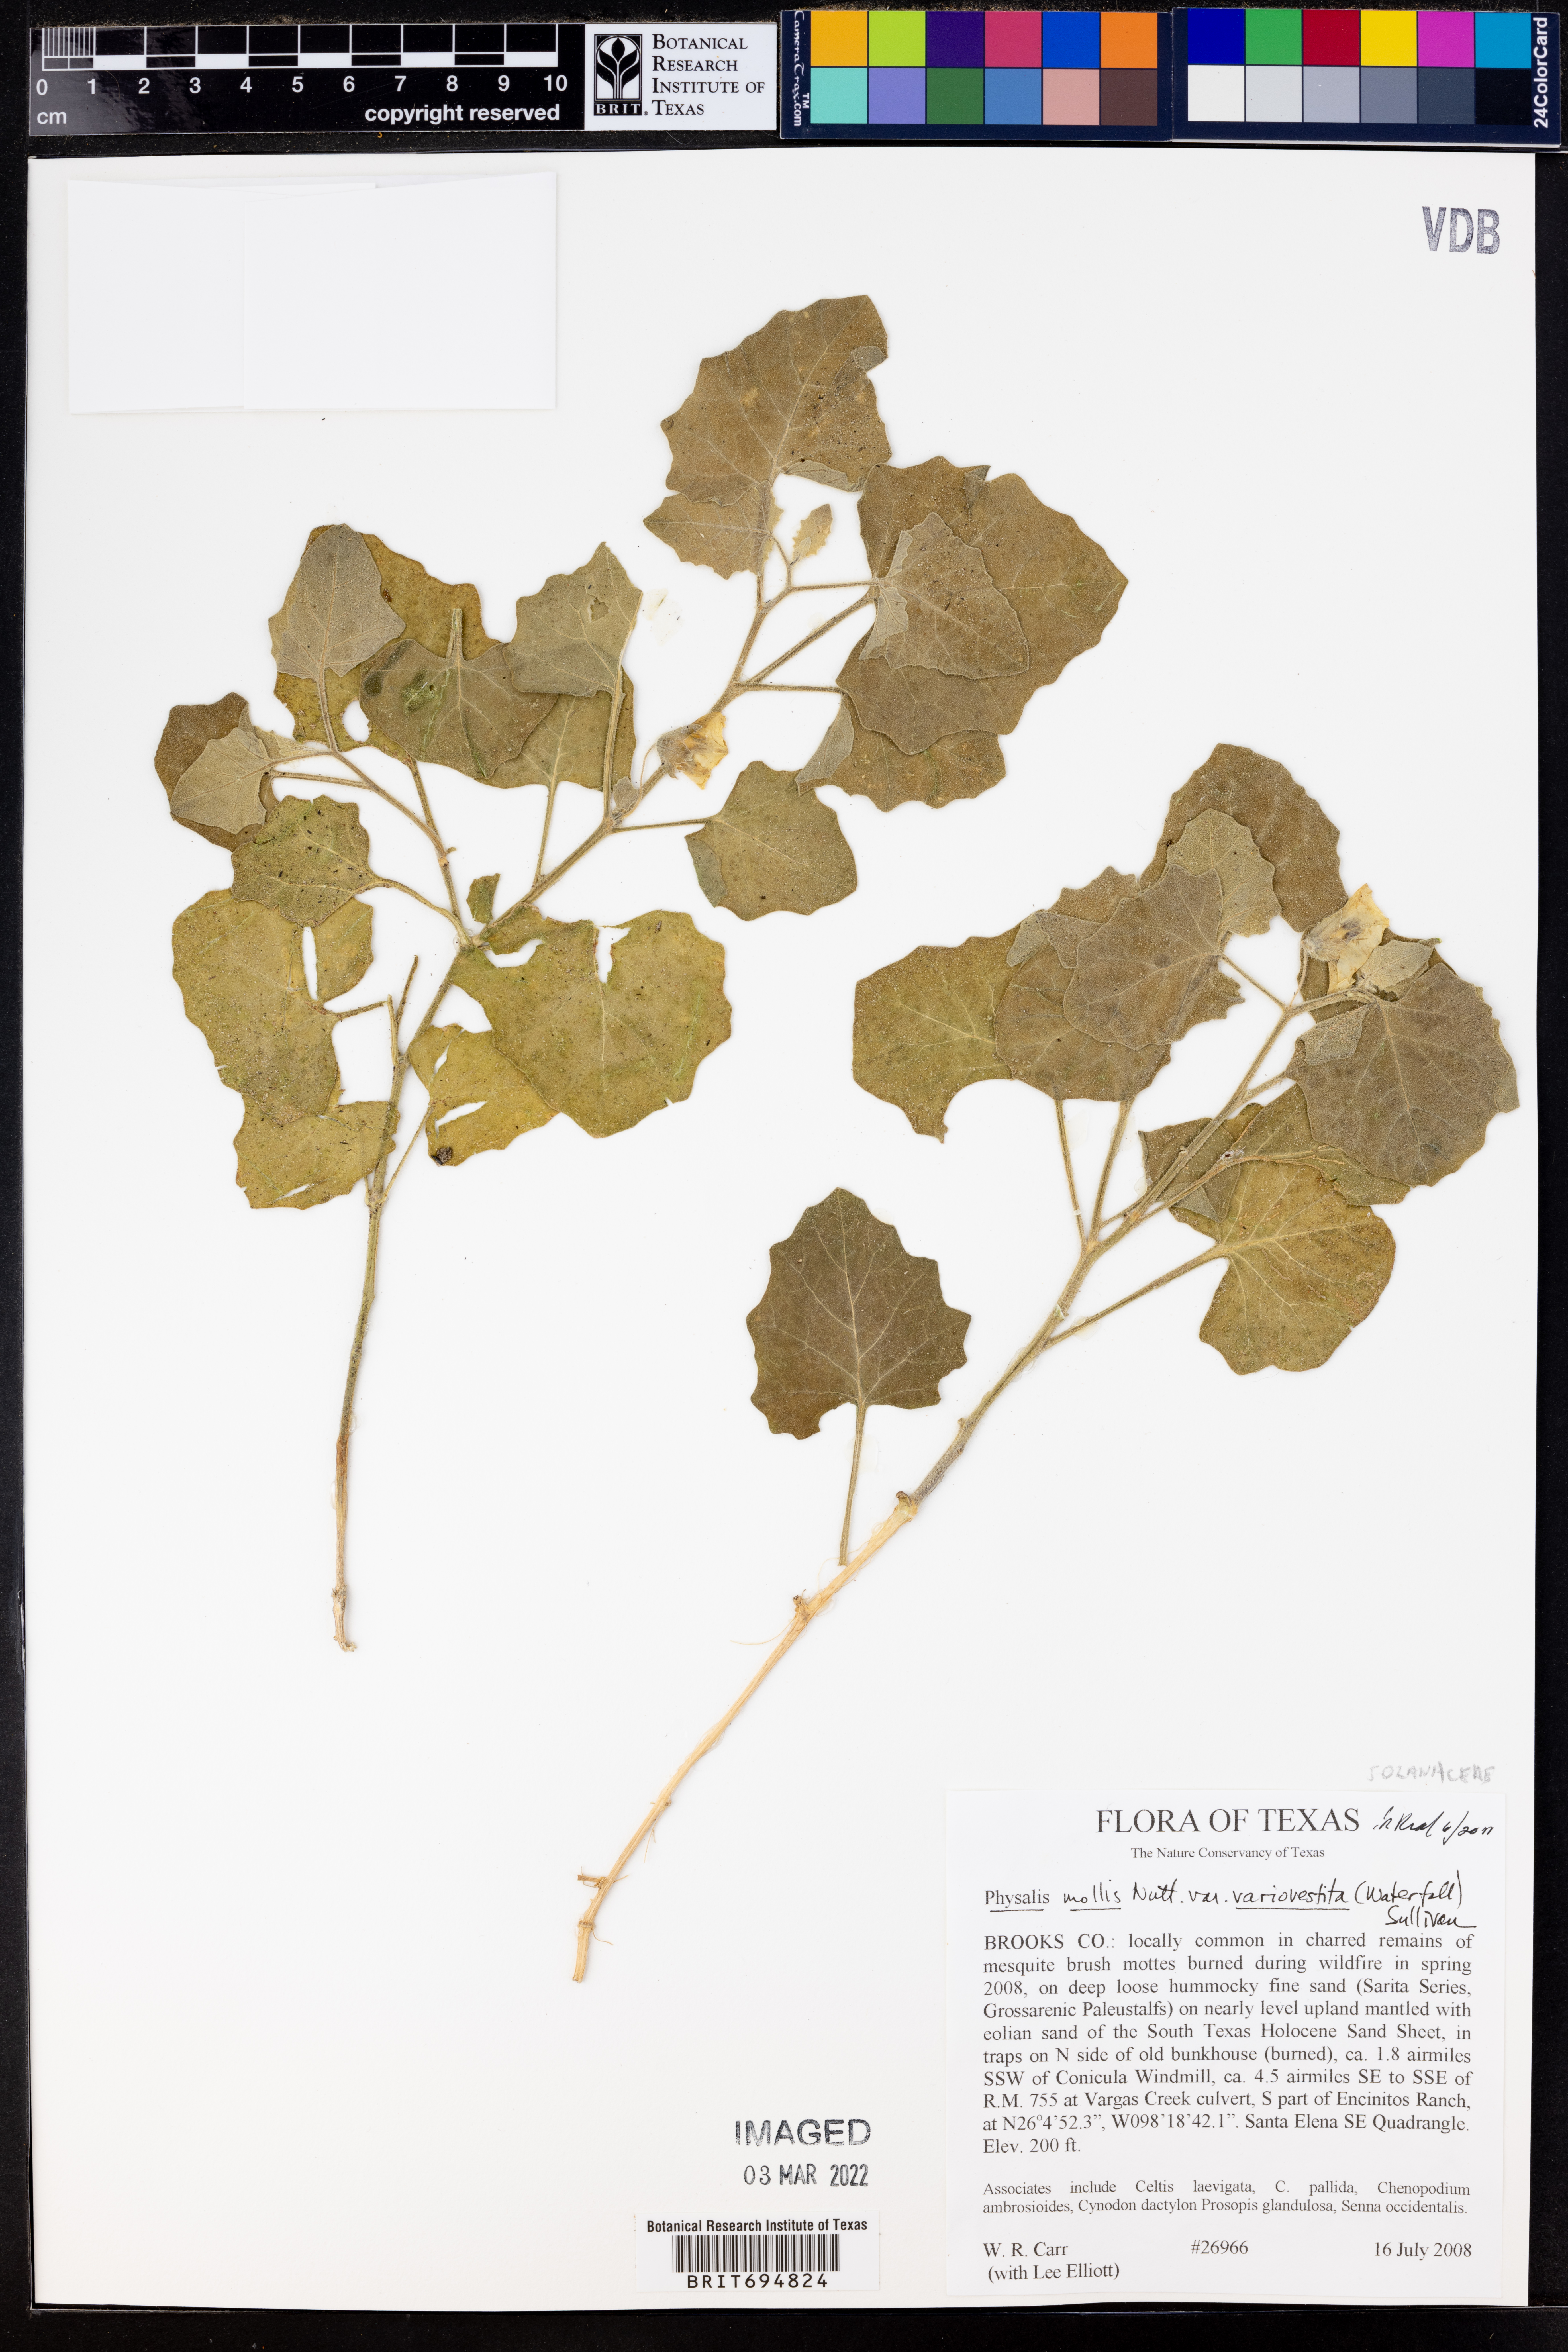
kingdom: Plantae
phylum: Tracheophyta
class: Magnoliopsida
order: Solanales
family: Solanaceae
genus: Physalis
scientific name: Physalis mollis
